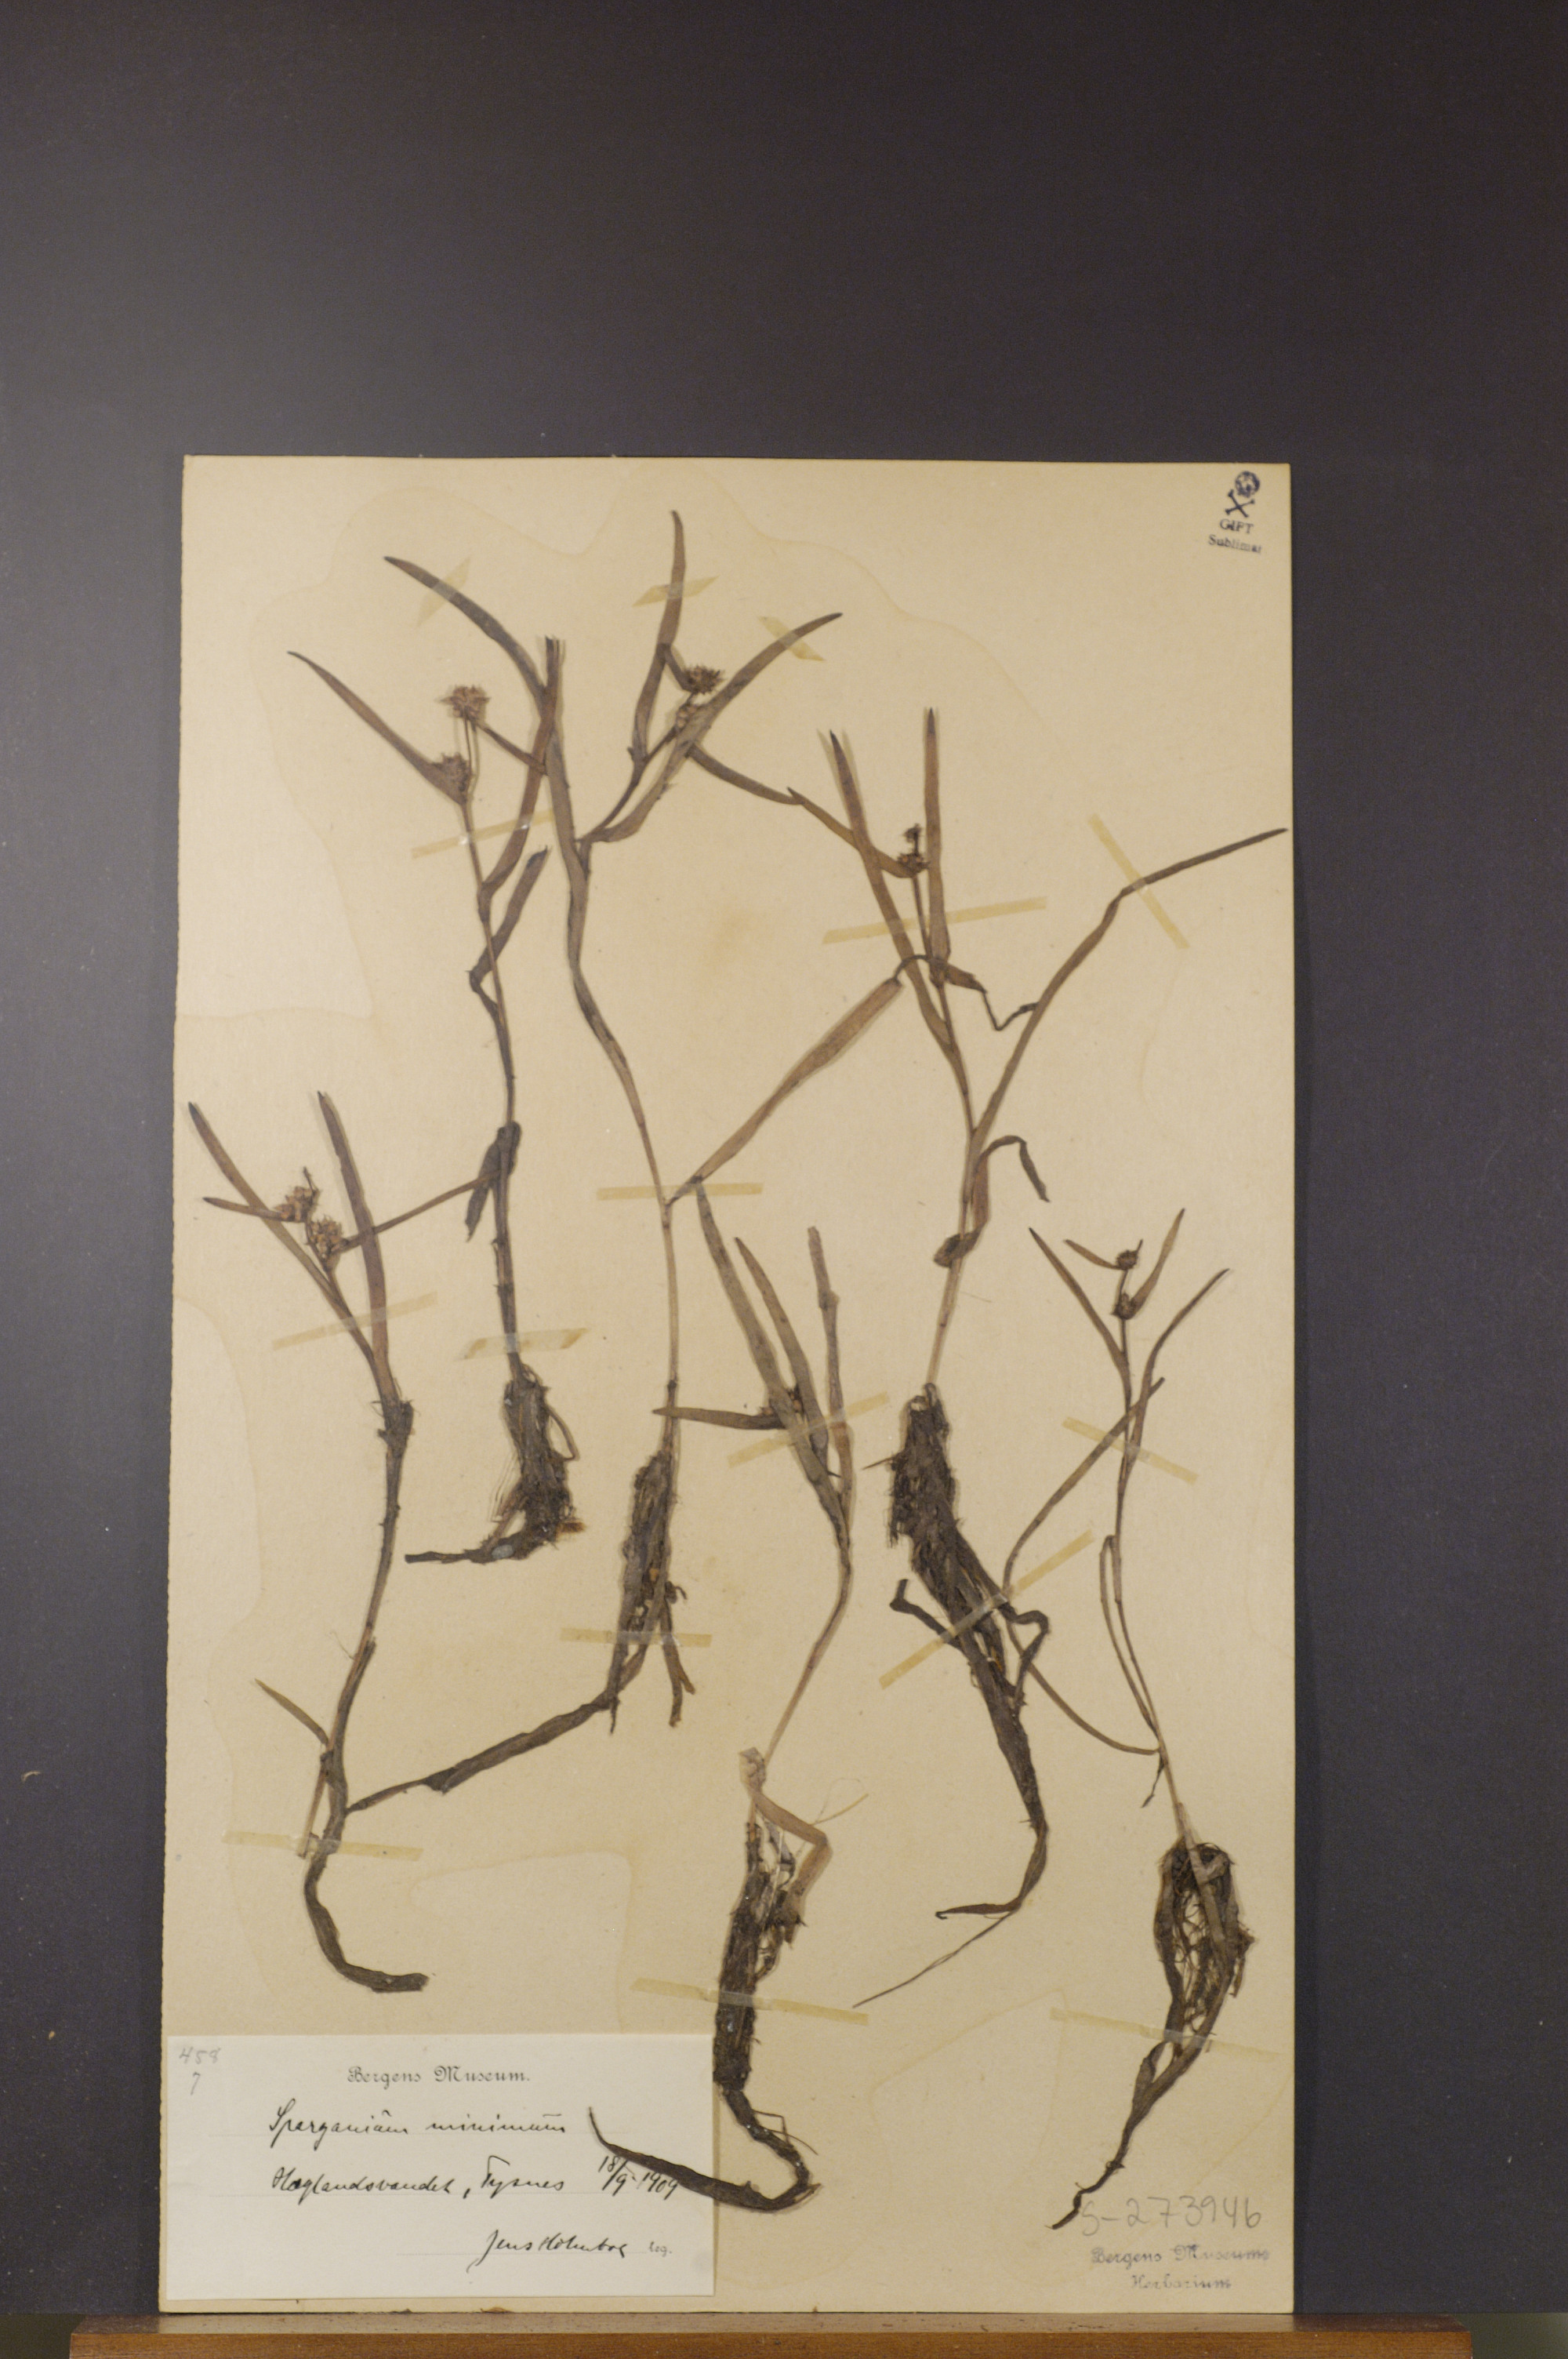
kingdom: Plantae
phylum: Tracheophyta
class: Liliopsida
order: Poales
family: Typhaceae
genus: Sparganium
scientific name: Sparganium natans
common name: Least bur-reed
